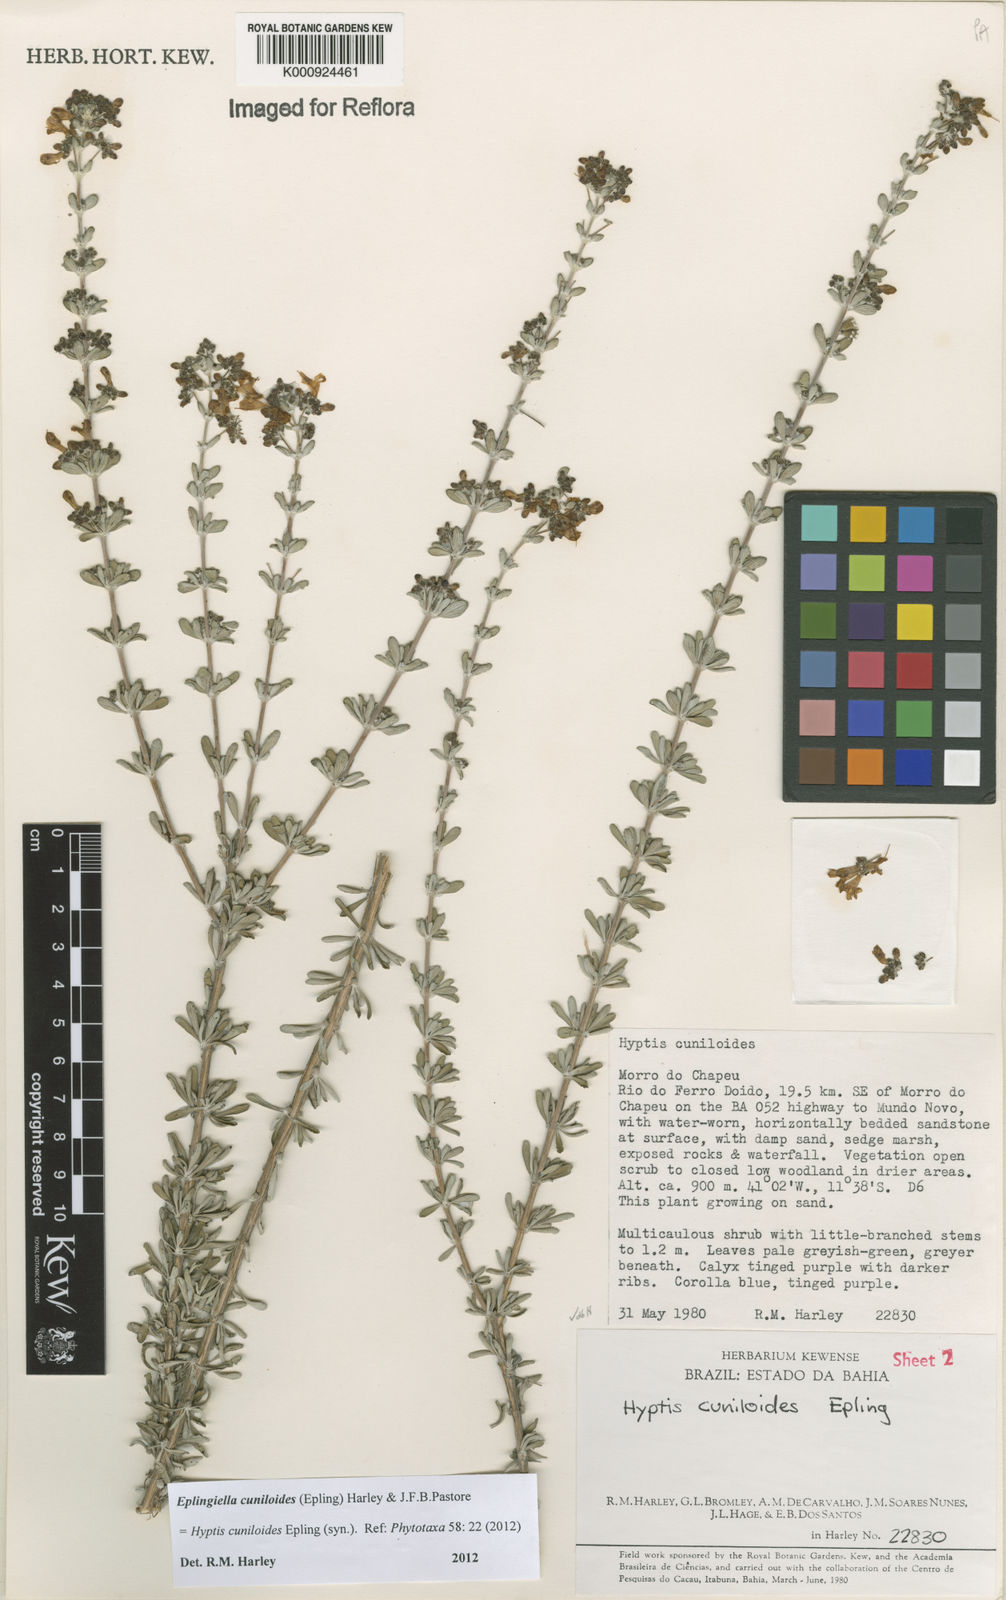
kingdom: Plantae
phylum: Tracheophyta
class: Magnoliopsida
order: Lamiales
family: Lamiaceae
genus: Eplingiella
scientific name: Eplingiella cuniloides
